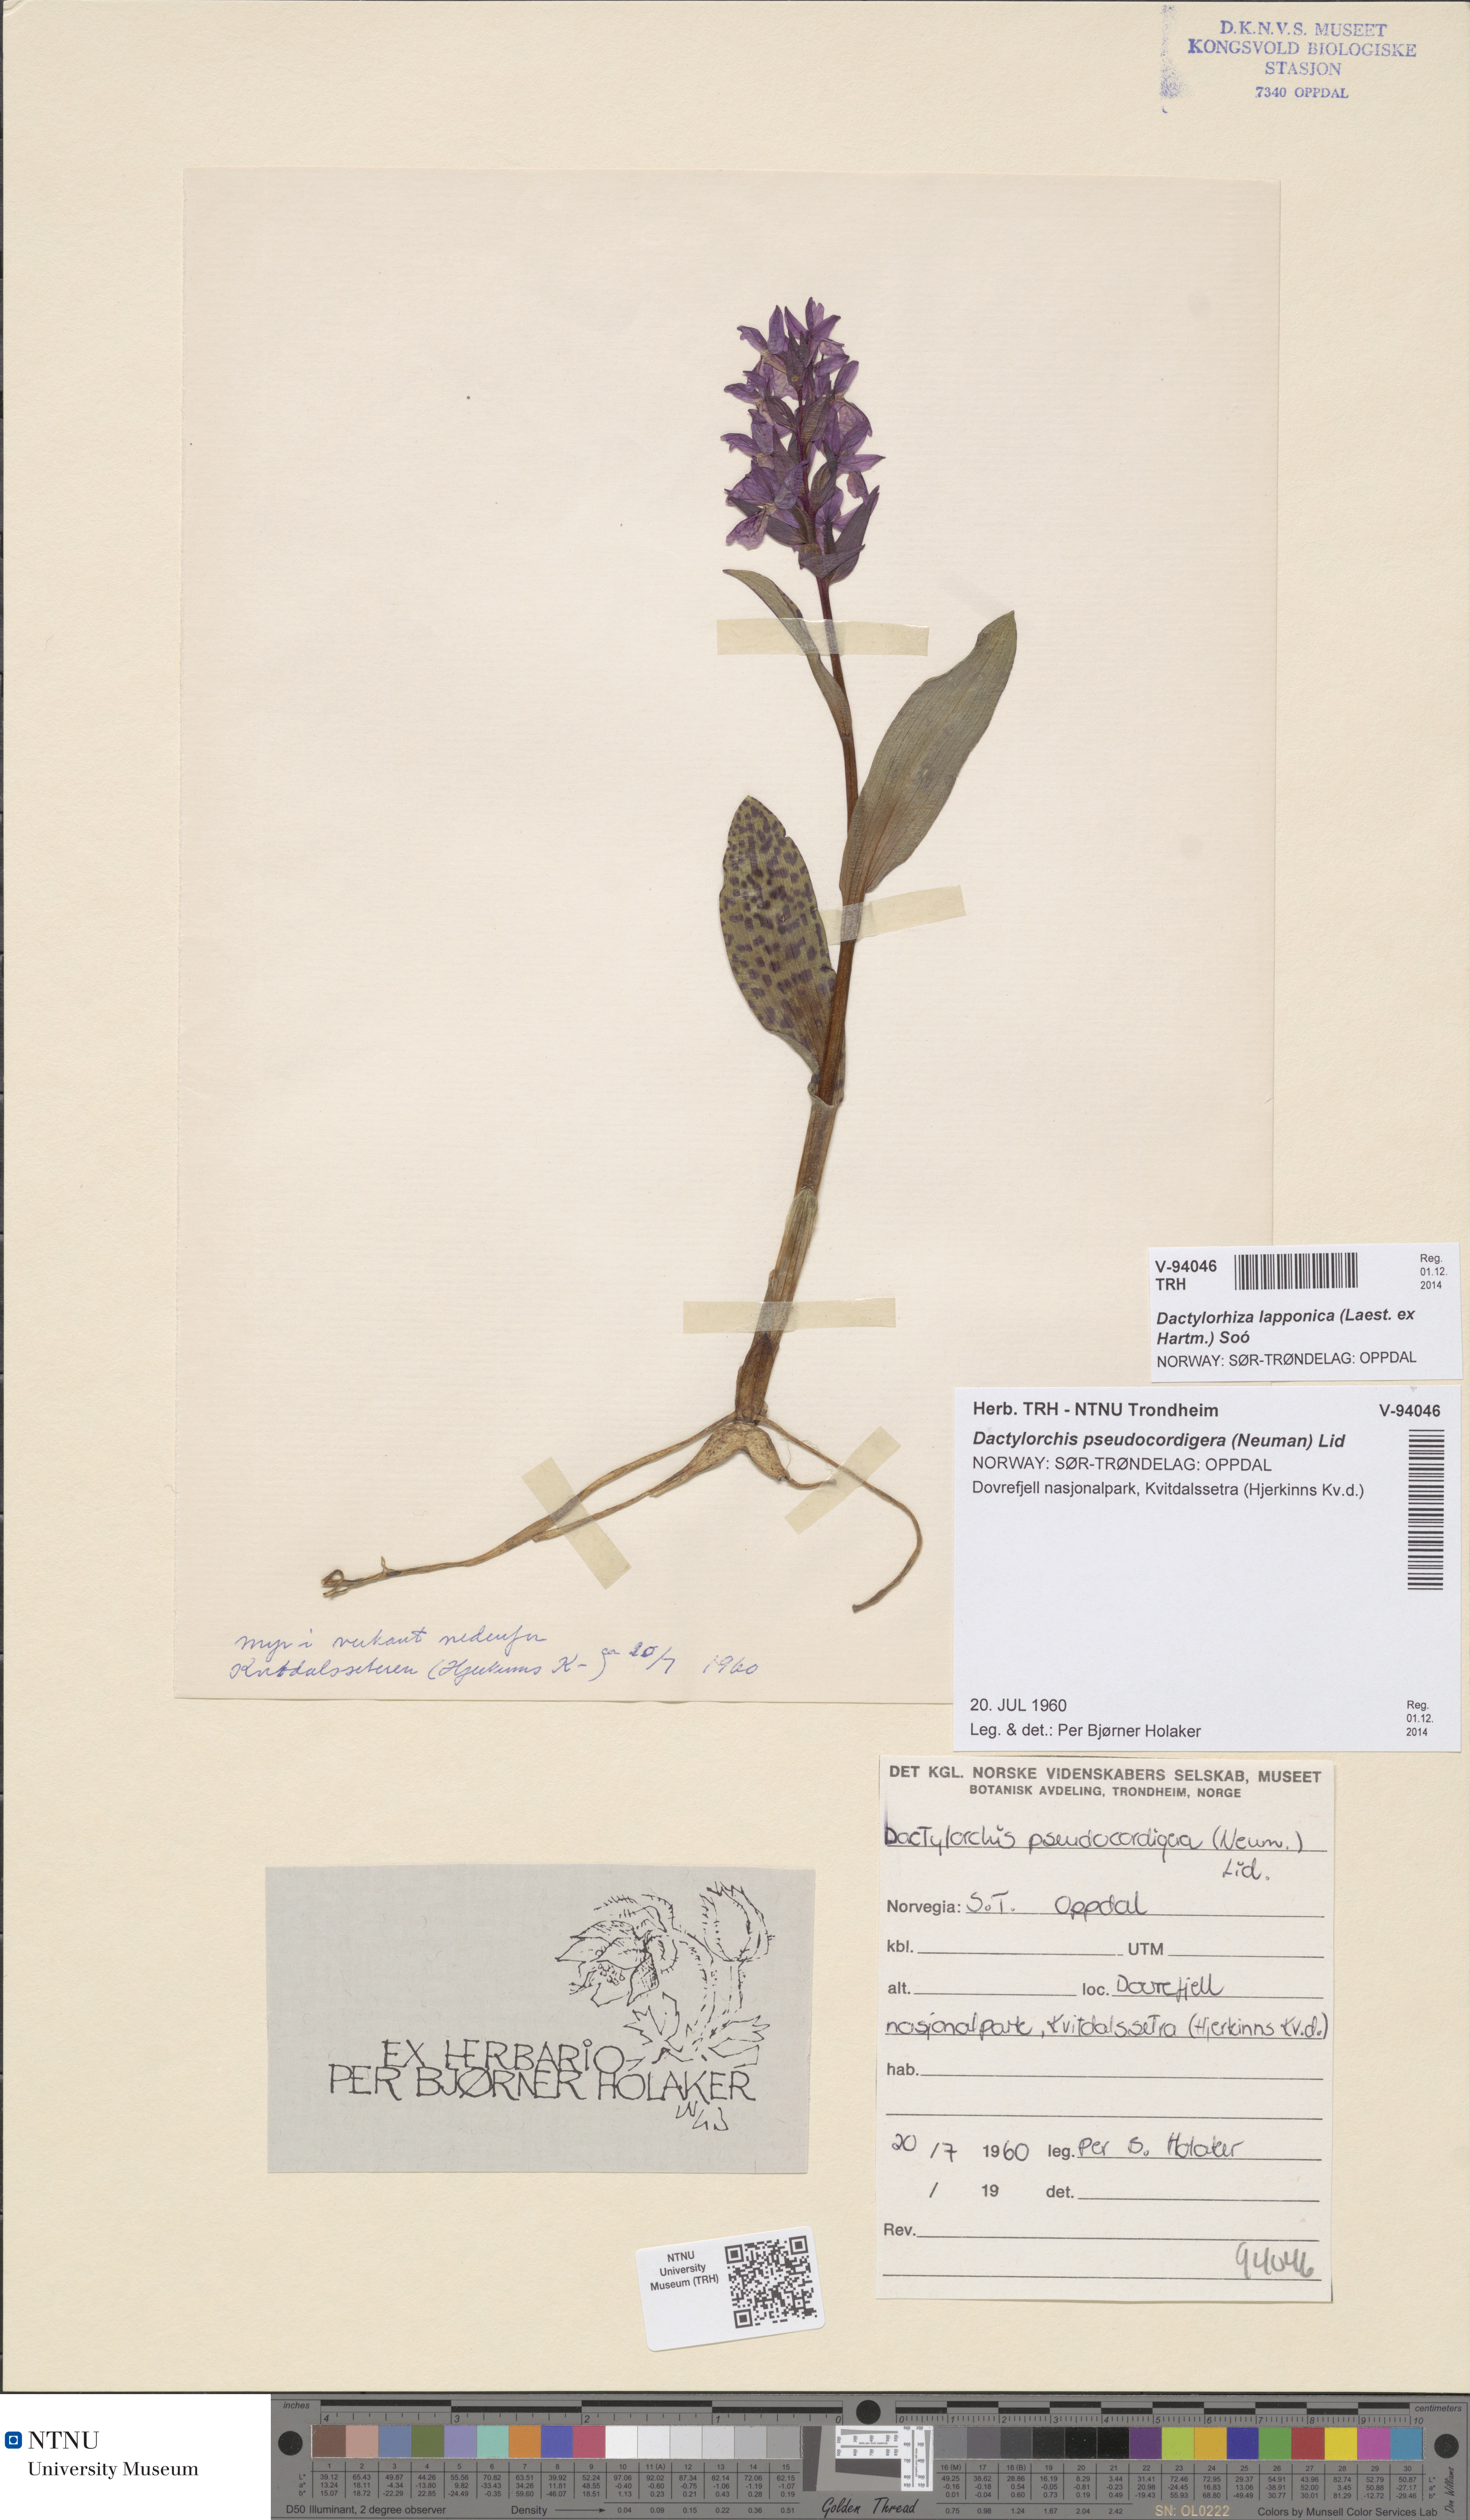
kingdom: Plantae
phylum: Tracheophyta
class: Liliopsida
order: Asparagales
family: Orchidaceae
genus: Dactylorhiza
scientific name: Dactylorhiza majalis
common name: Marsh orchid
